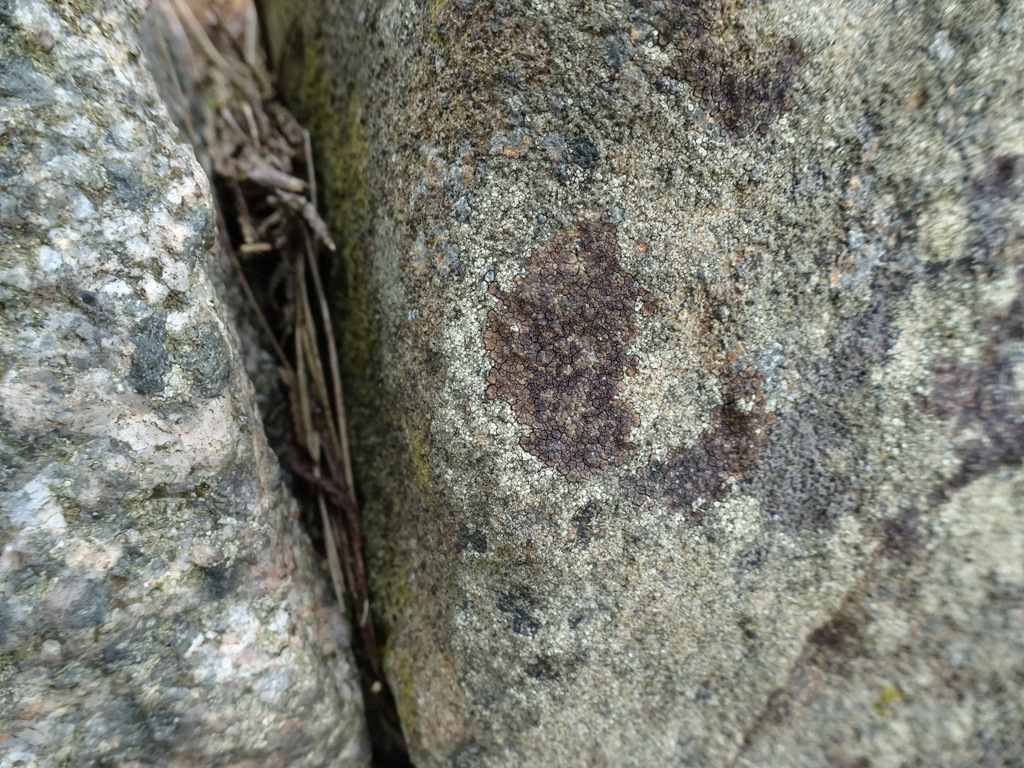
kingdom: Fungi
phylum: Ascomycota
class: Lecanoromycetes
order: Acarosporales
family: Acarosporaceae
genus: Acarospora
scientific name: Acarospora fuscata
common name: brun småsporelav
